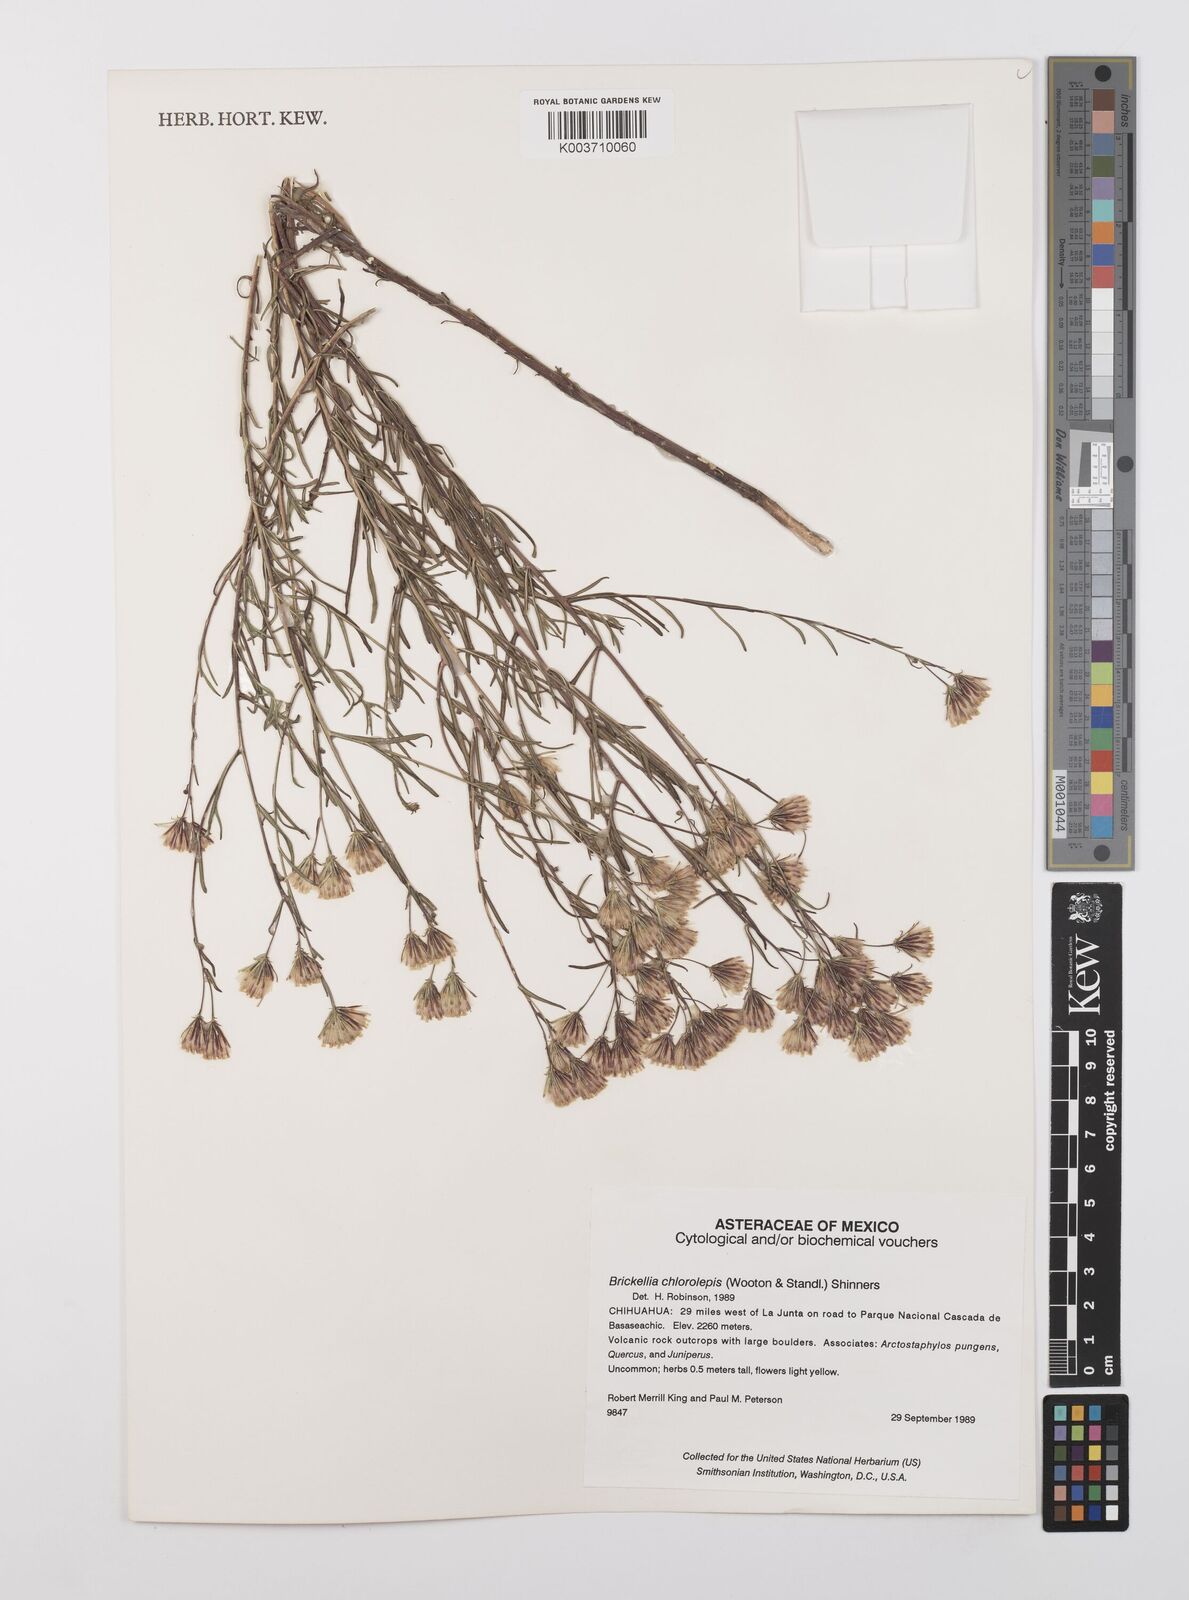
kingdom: Plantae
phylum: Tracheophyta
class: Magnoliopsida
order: Asterales
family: Asteraceae
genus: Brickellia
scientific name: Brickellia leptophylla
